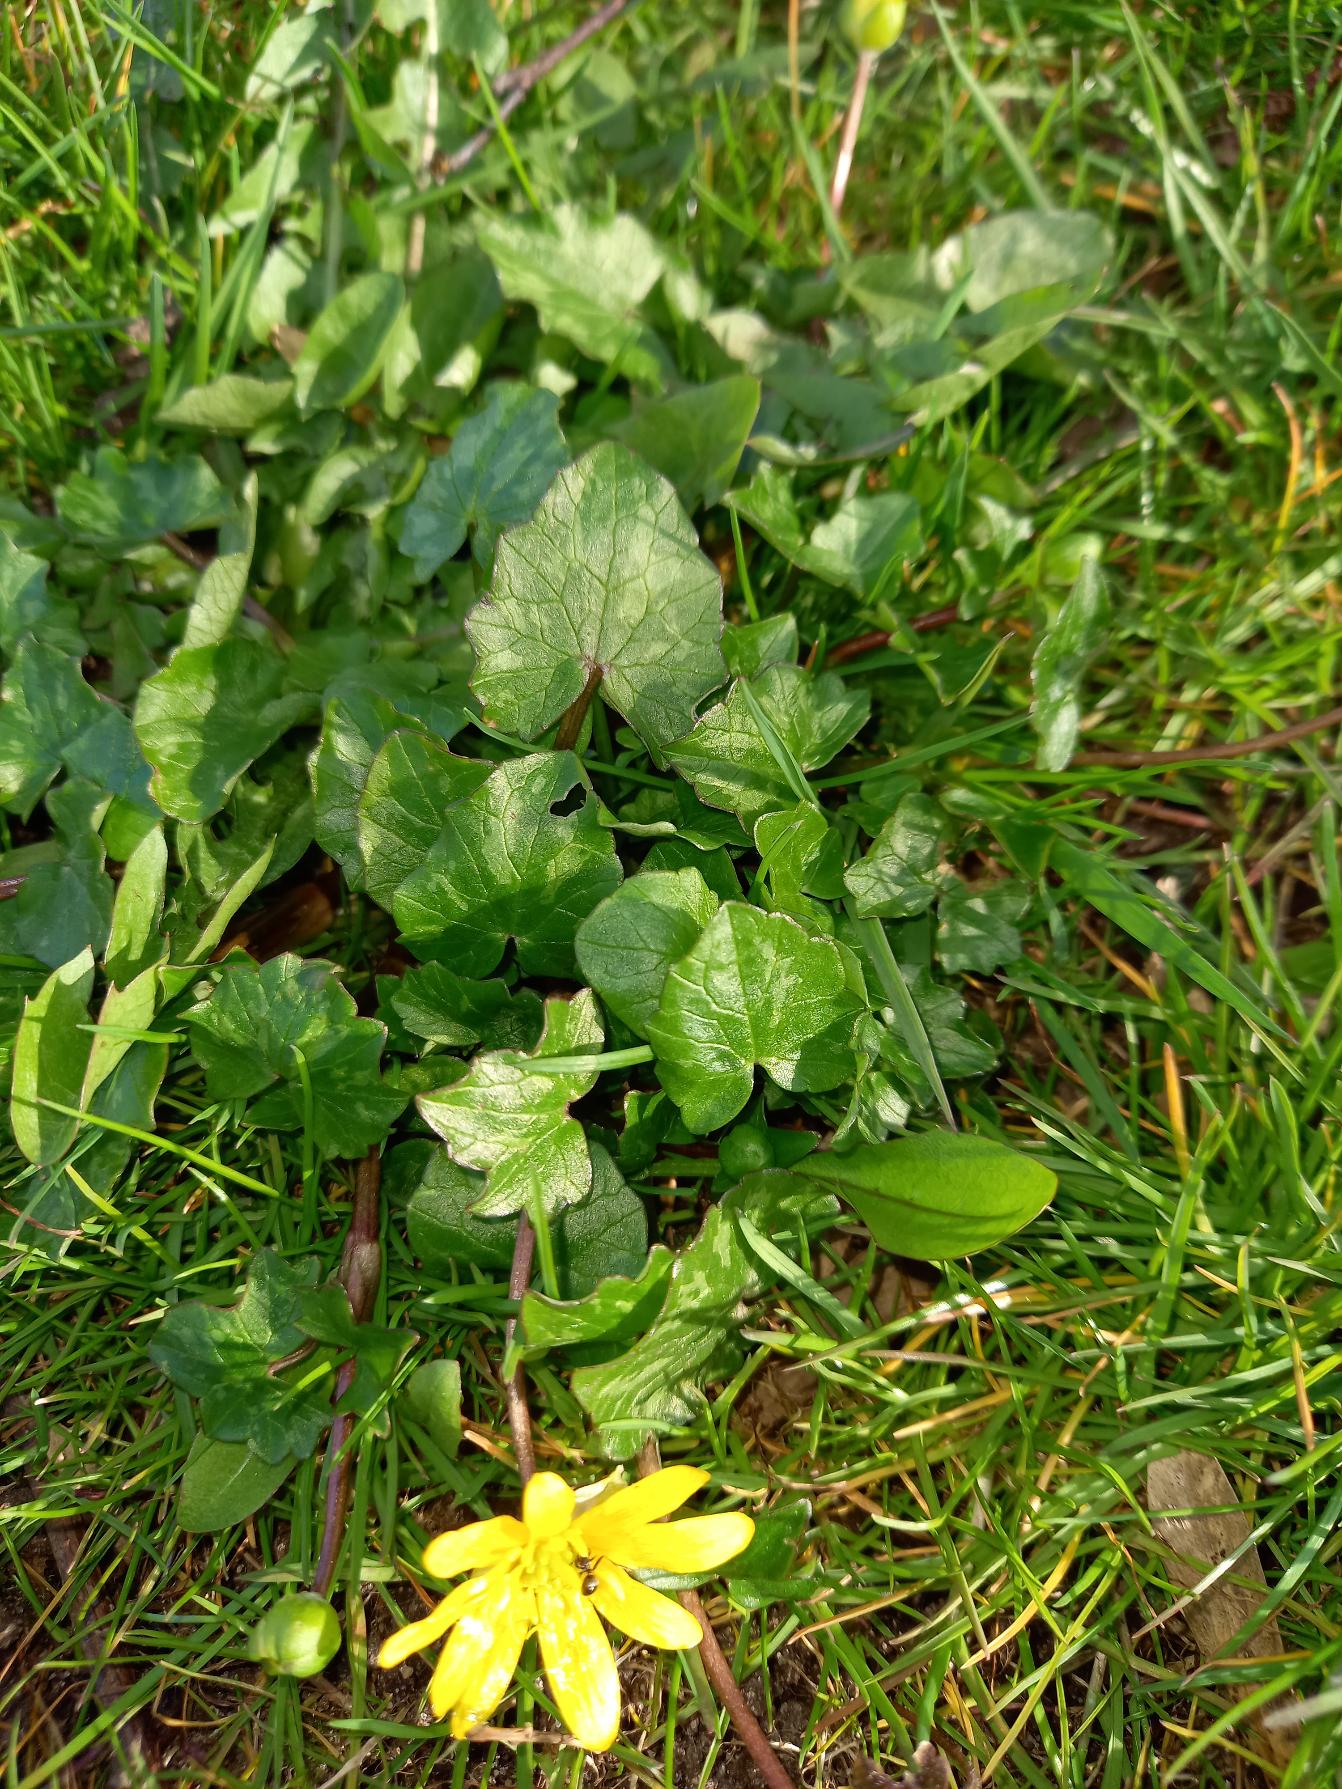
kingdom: Plantae
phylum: Tracheophyta
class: Magnoliopsida
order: Ranunculales
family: Ranunculaceae
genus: Ficaria
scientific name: Ficaria verna
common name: Vorterod
